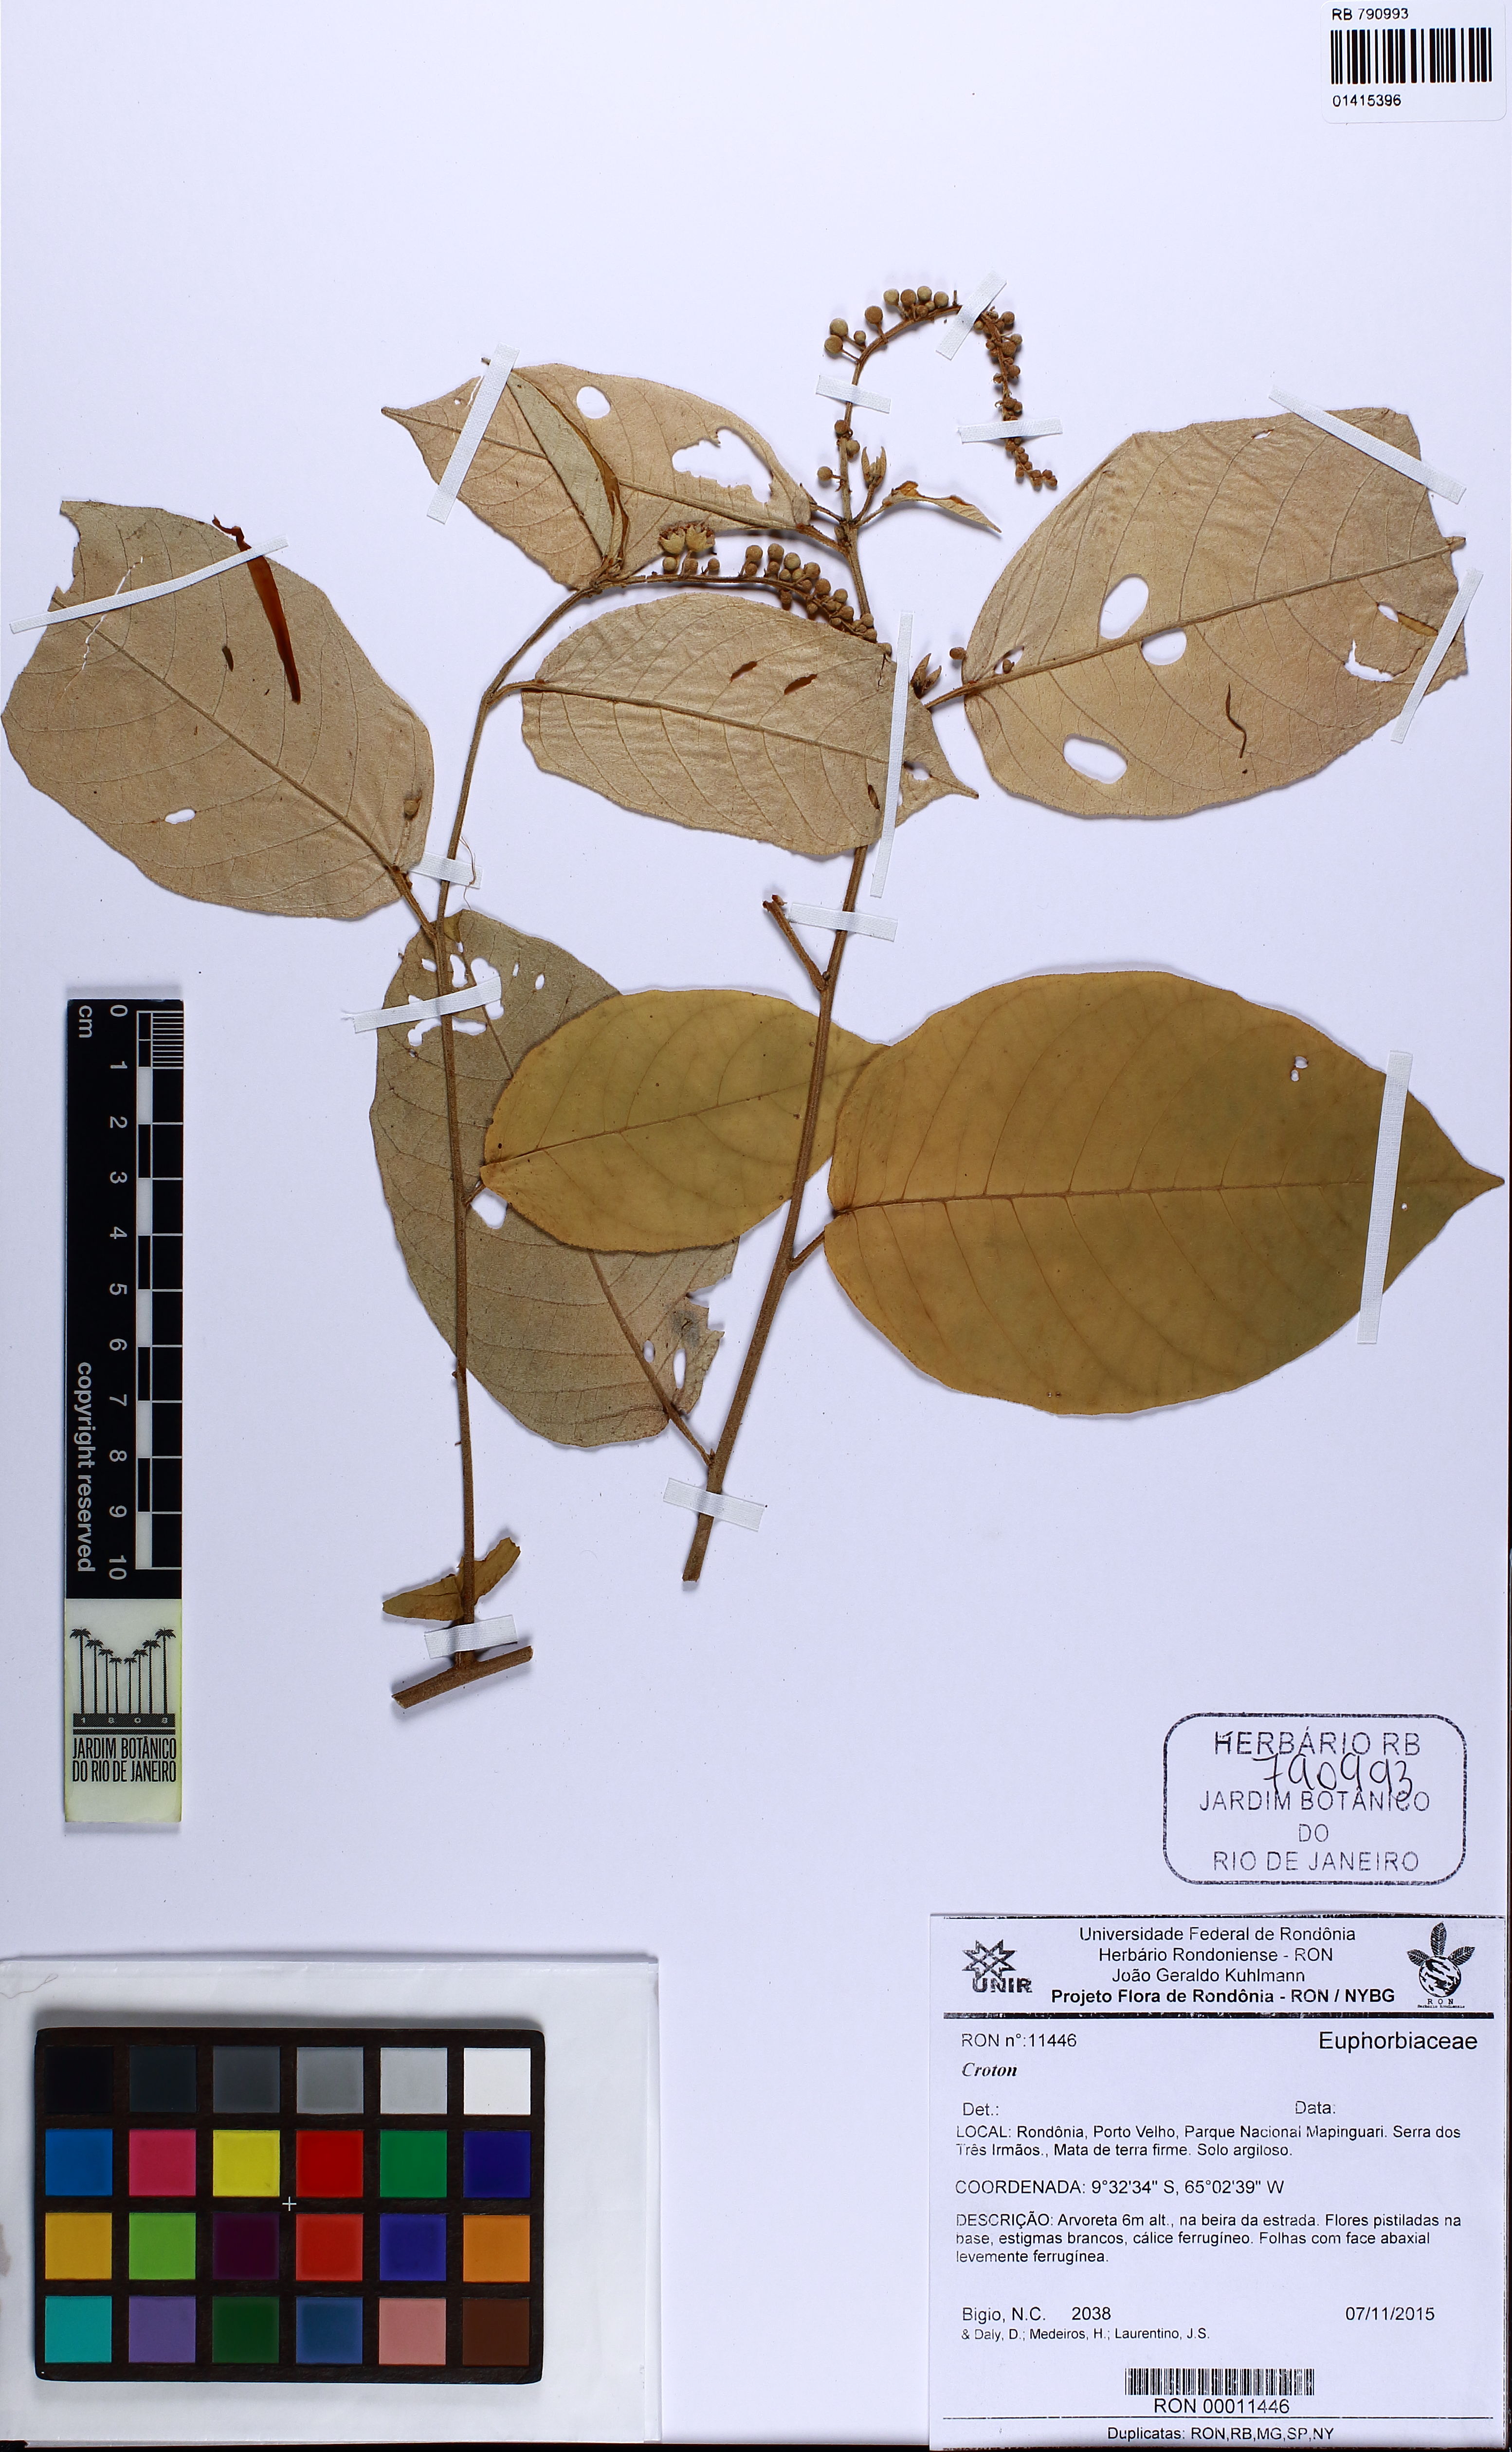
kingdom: Plantae
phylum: Tracheophyta
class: Magnoliopsida
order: Malpighiales
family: Euphorbiaceae
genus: Croton
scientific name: Croton
